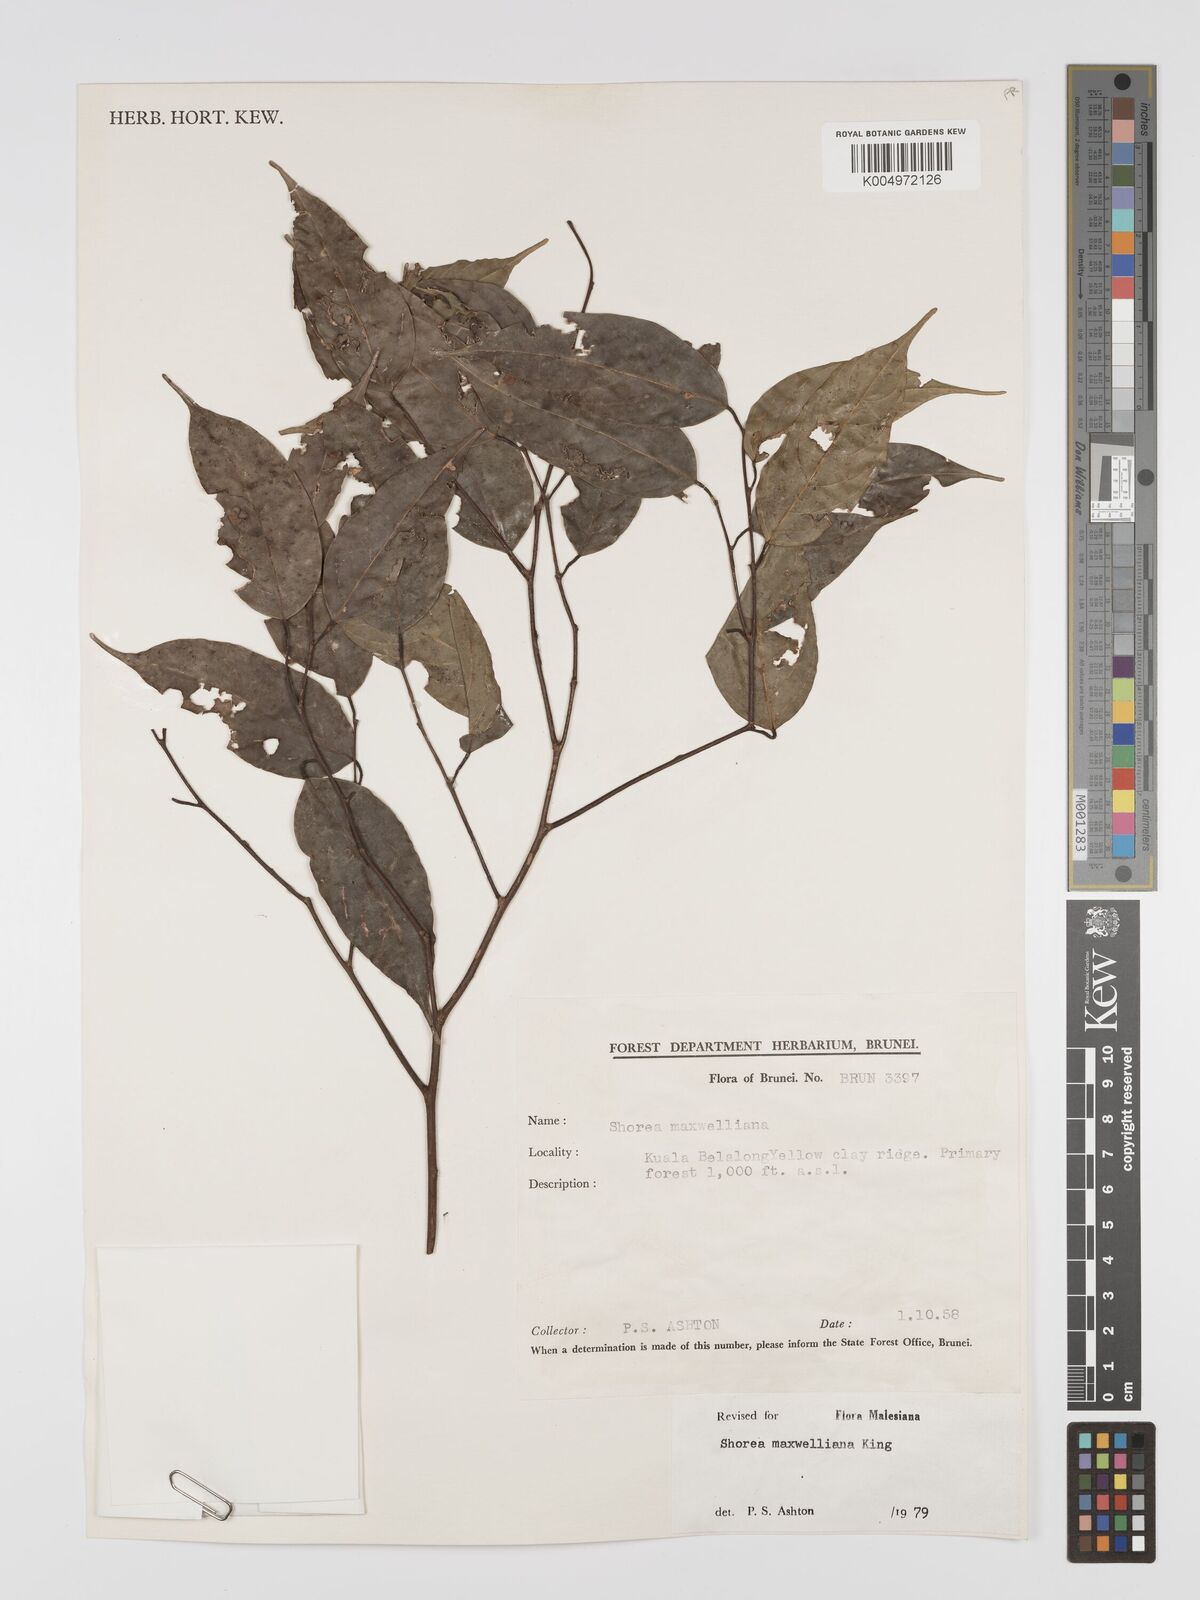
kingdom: Plantae
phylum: Tracheophyta
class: Magnoliopsida
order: Malvales
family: Dipterocarpaceae
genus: Shorea
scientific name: Shorea maxwelliana
